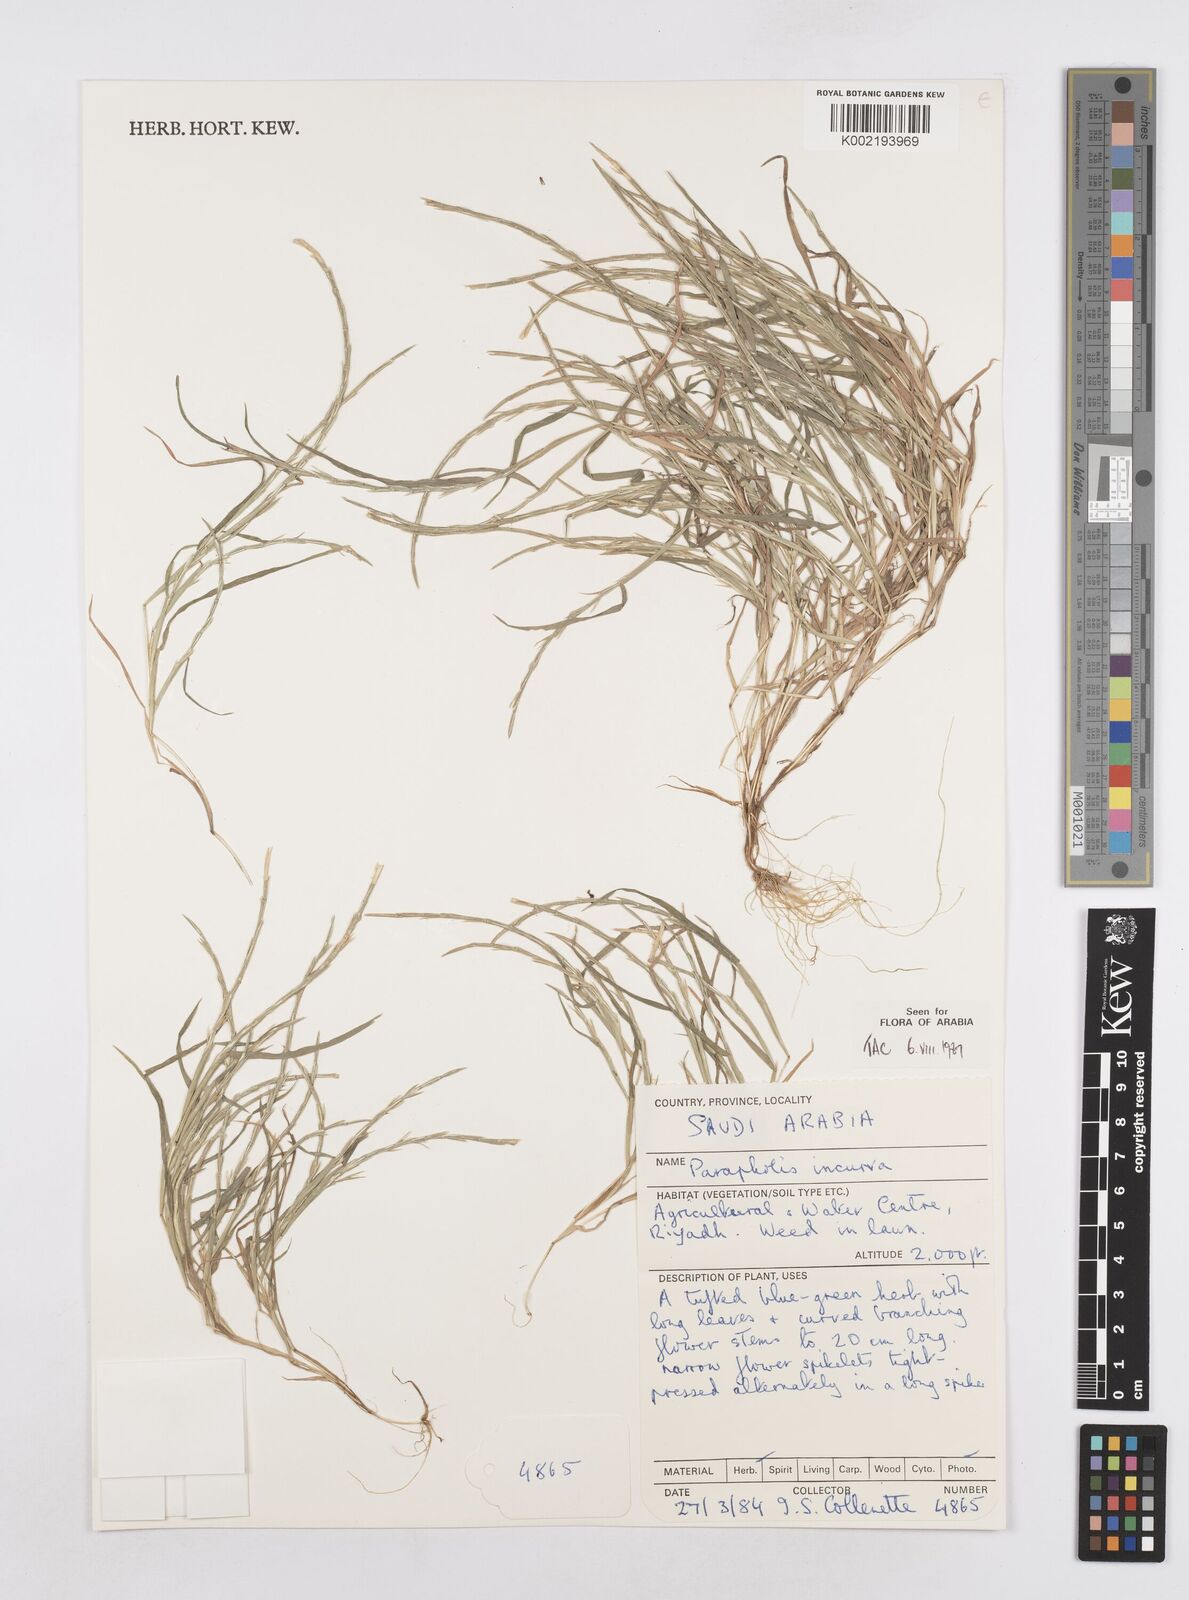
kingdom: Plantae
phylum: Tracheophyta
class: Liliopsida
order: Poales
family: Poaceae
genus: Parapholis
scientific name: Parapholis incurva
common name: Curved sicklegrass
